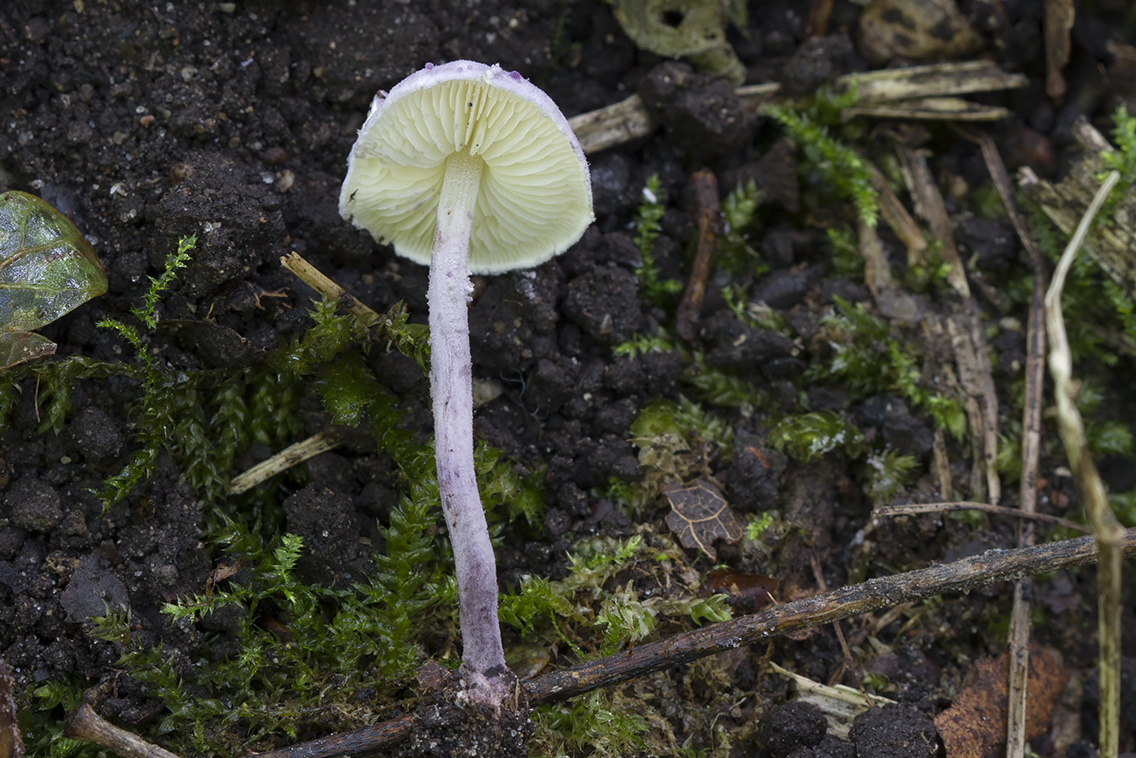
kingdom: Fungi
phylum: Basidiomycota
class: Agaricomycetes
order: Agaricales
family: Agaricaceae
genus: Cystolepiota
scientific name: Cystolepiota bucknallii
